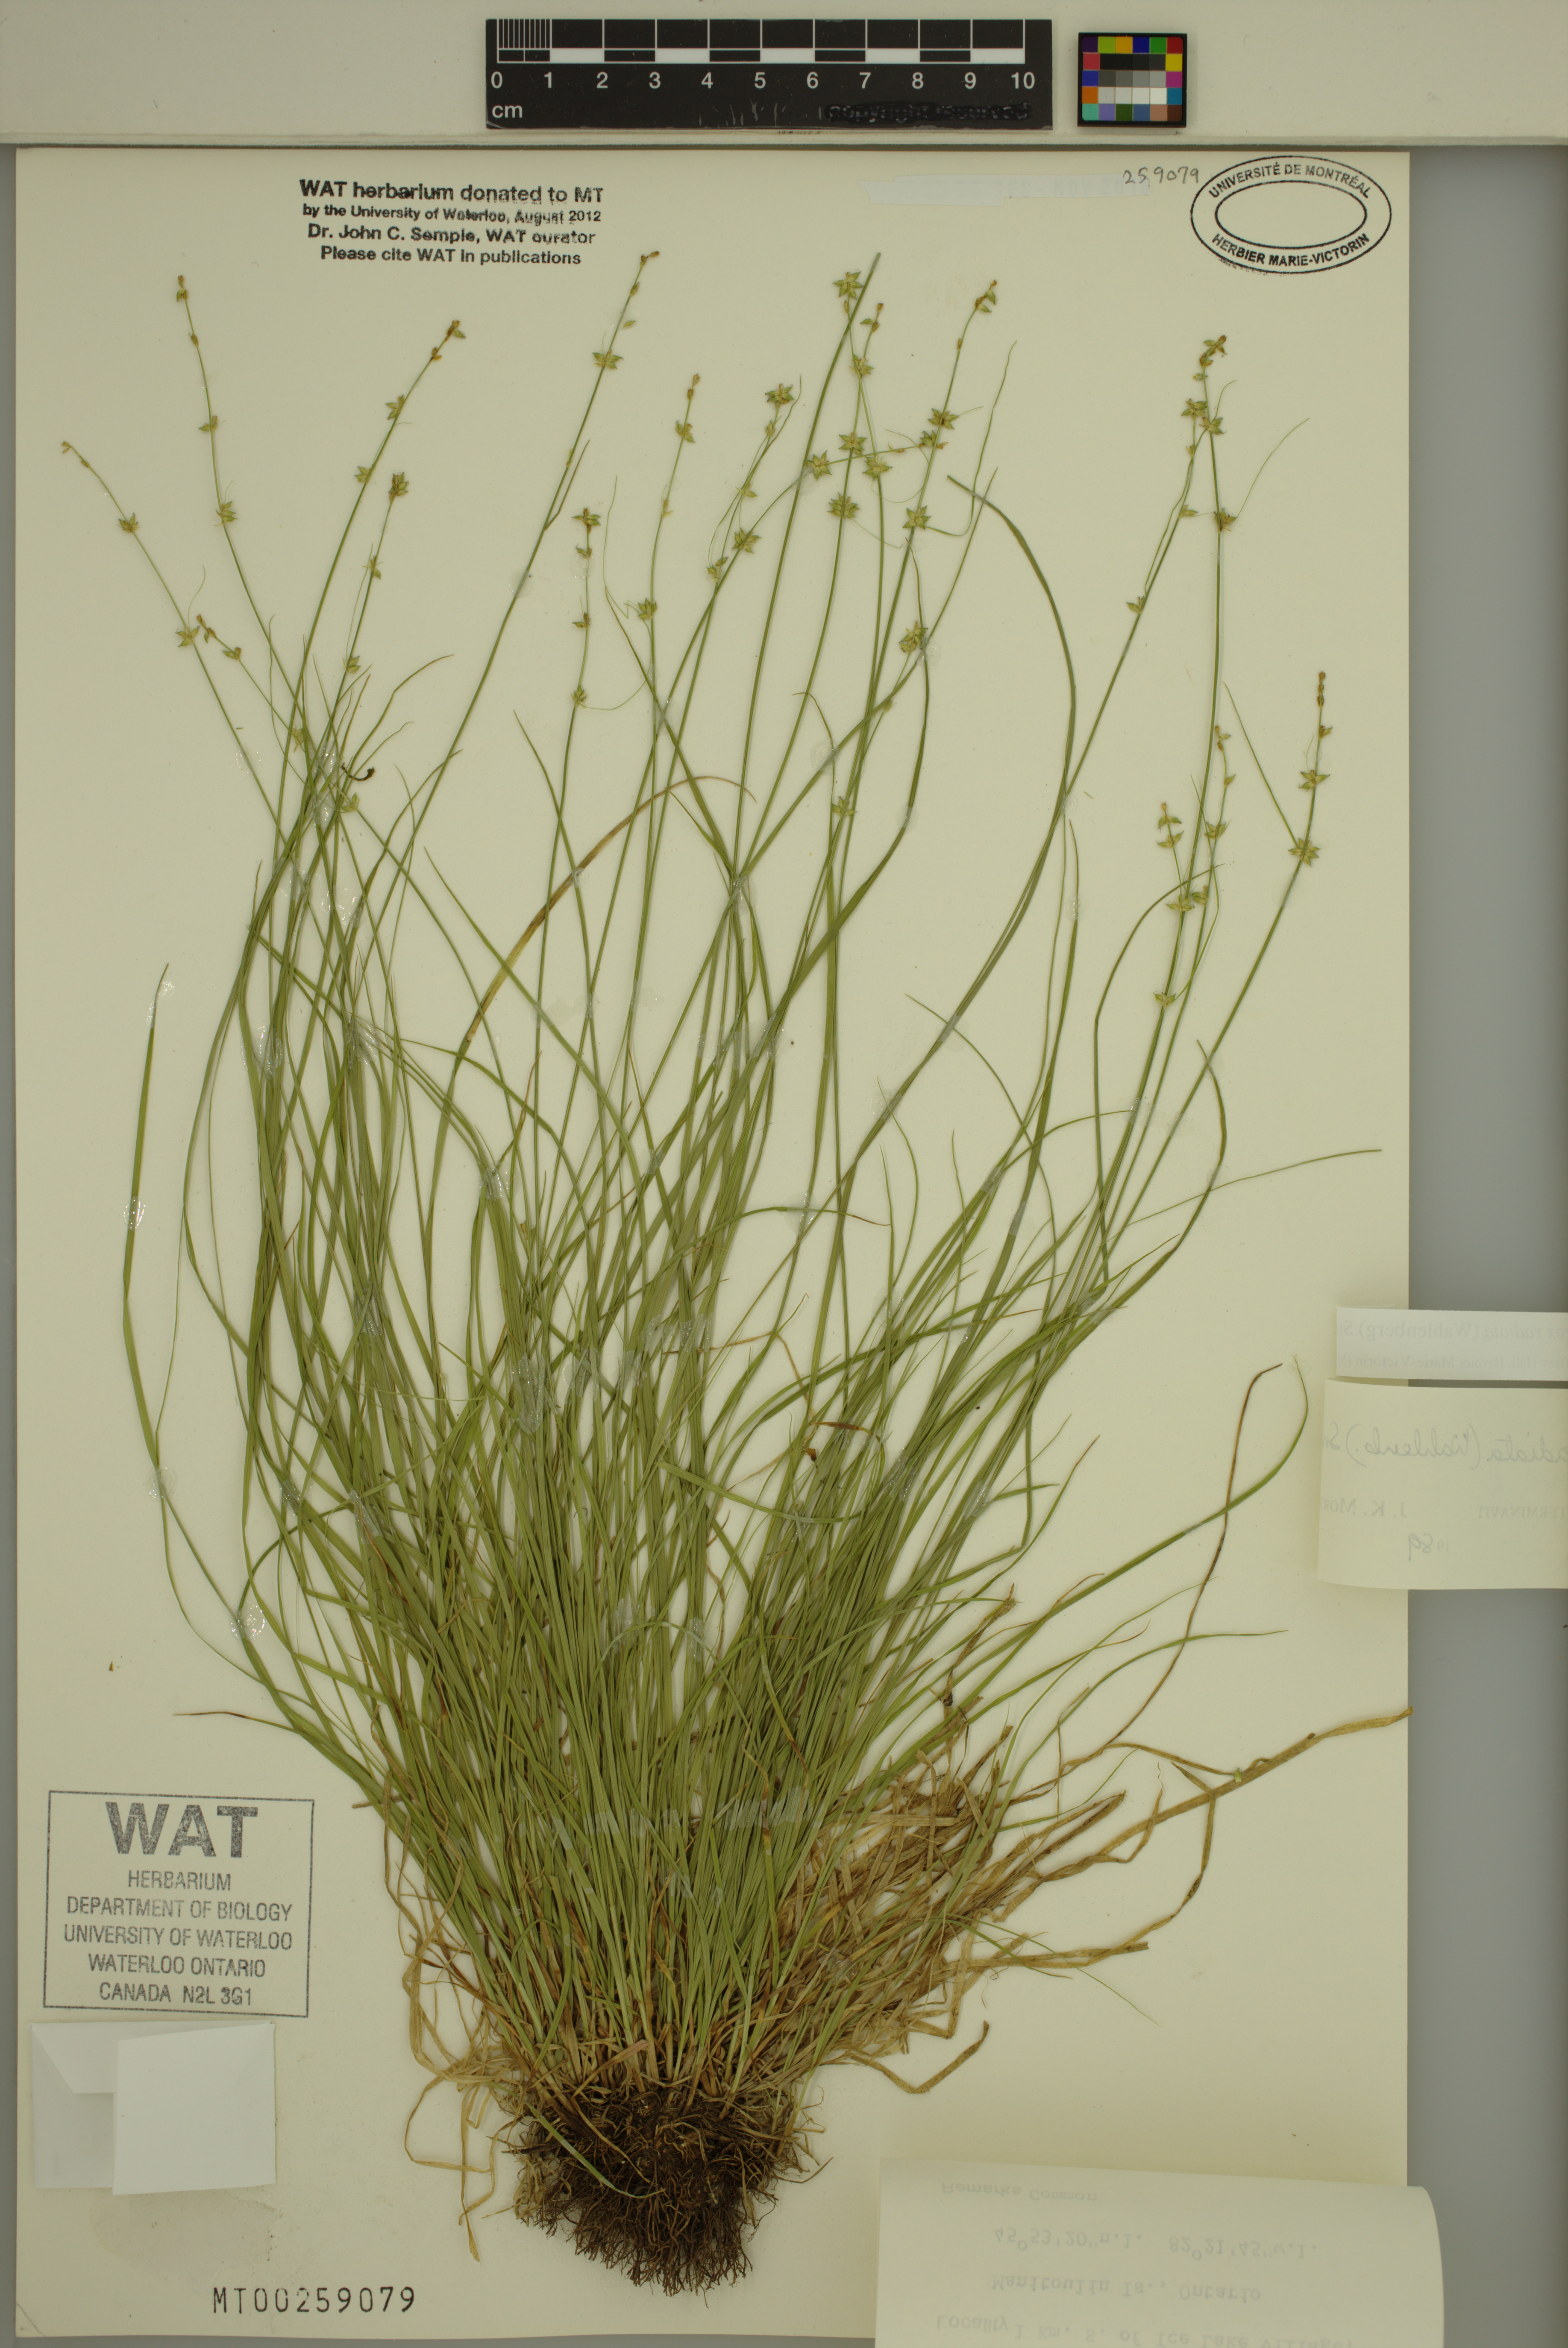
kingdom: Plantae
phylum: Tracheophyta
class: Liliopsida
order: Poales
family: Cyperaceae
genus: Carex
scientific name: Carex radiata
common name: Eastern star sedge
